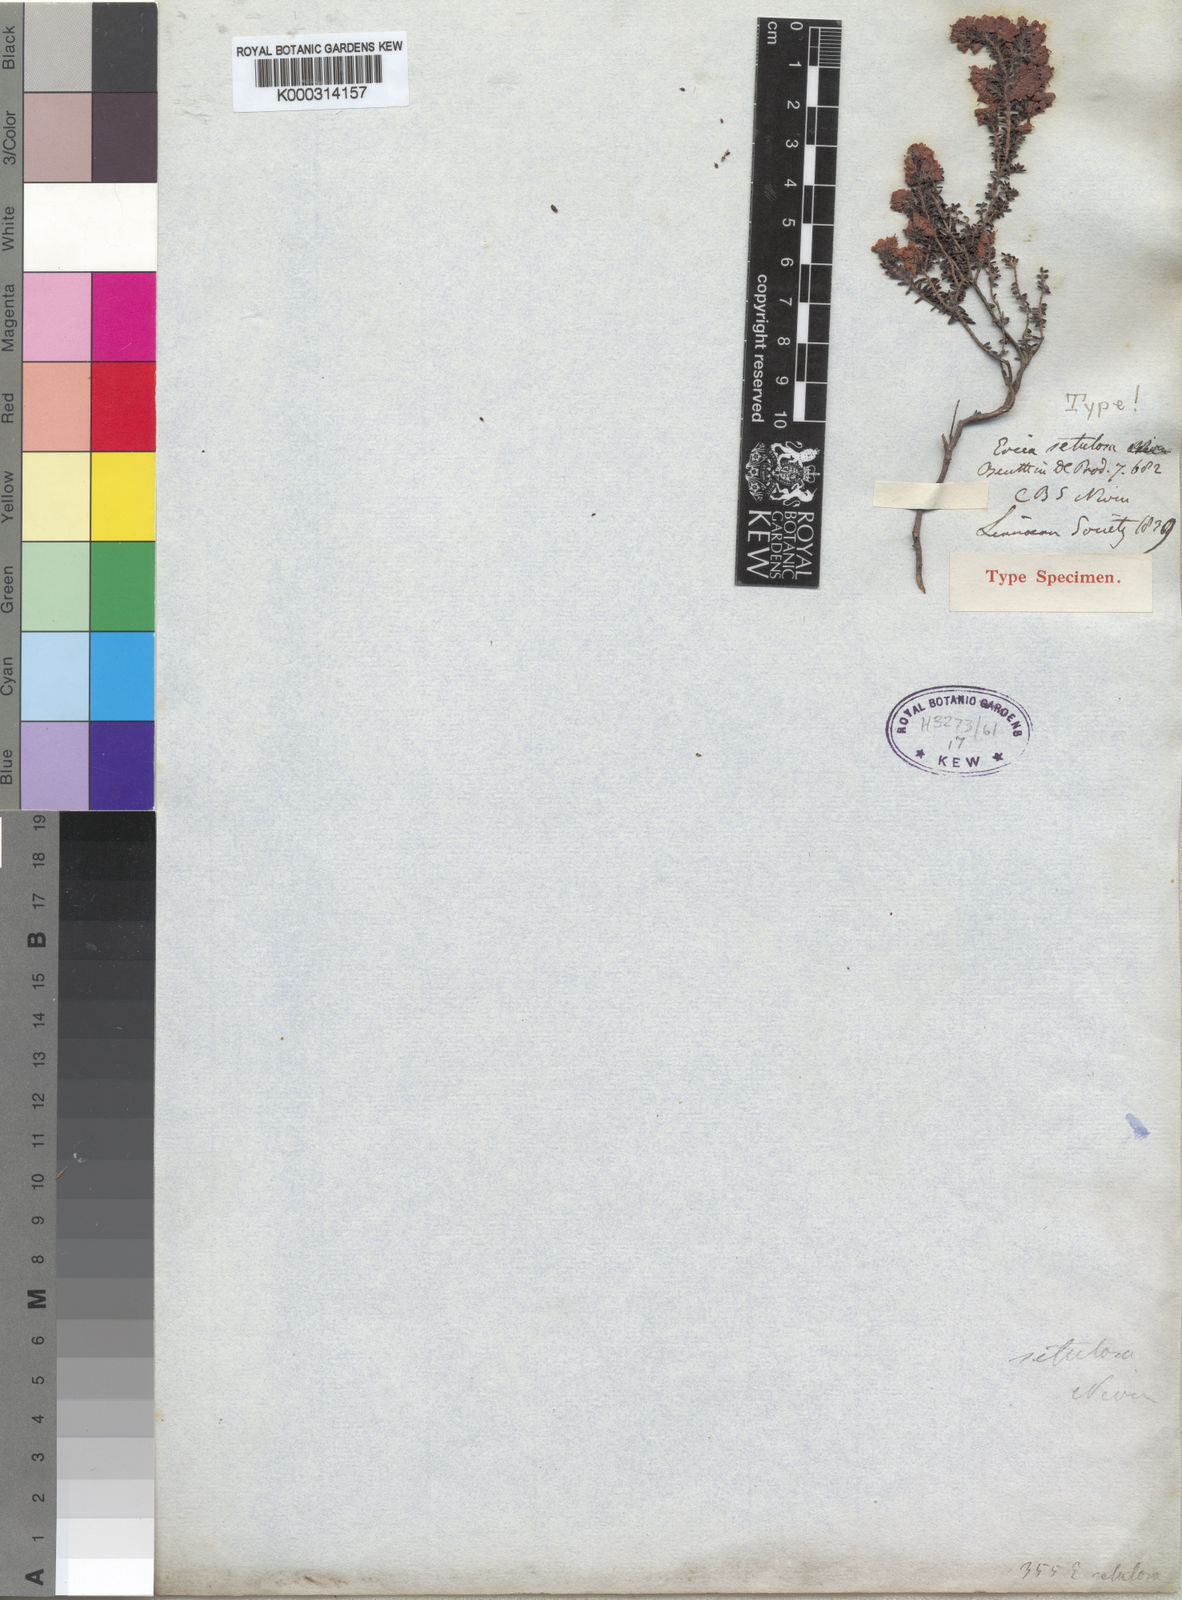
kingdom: Plantae
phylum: Tracheophyta
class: Magnoliopsida
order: Ericales
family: Ericaceae
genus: Erica
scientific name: Erica setulosa
